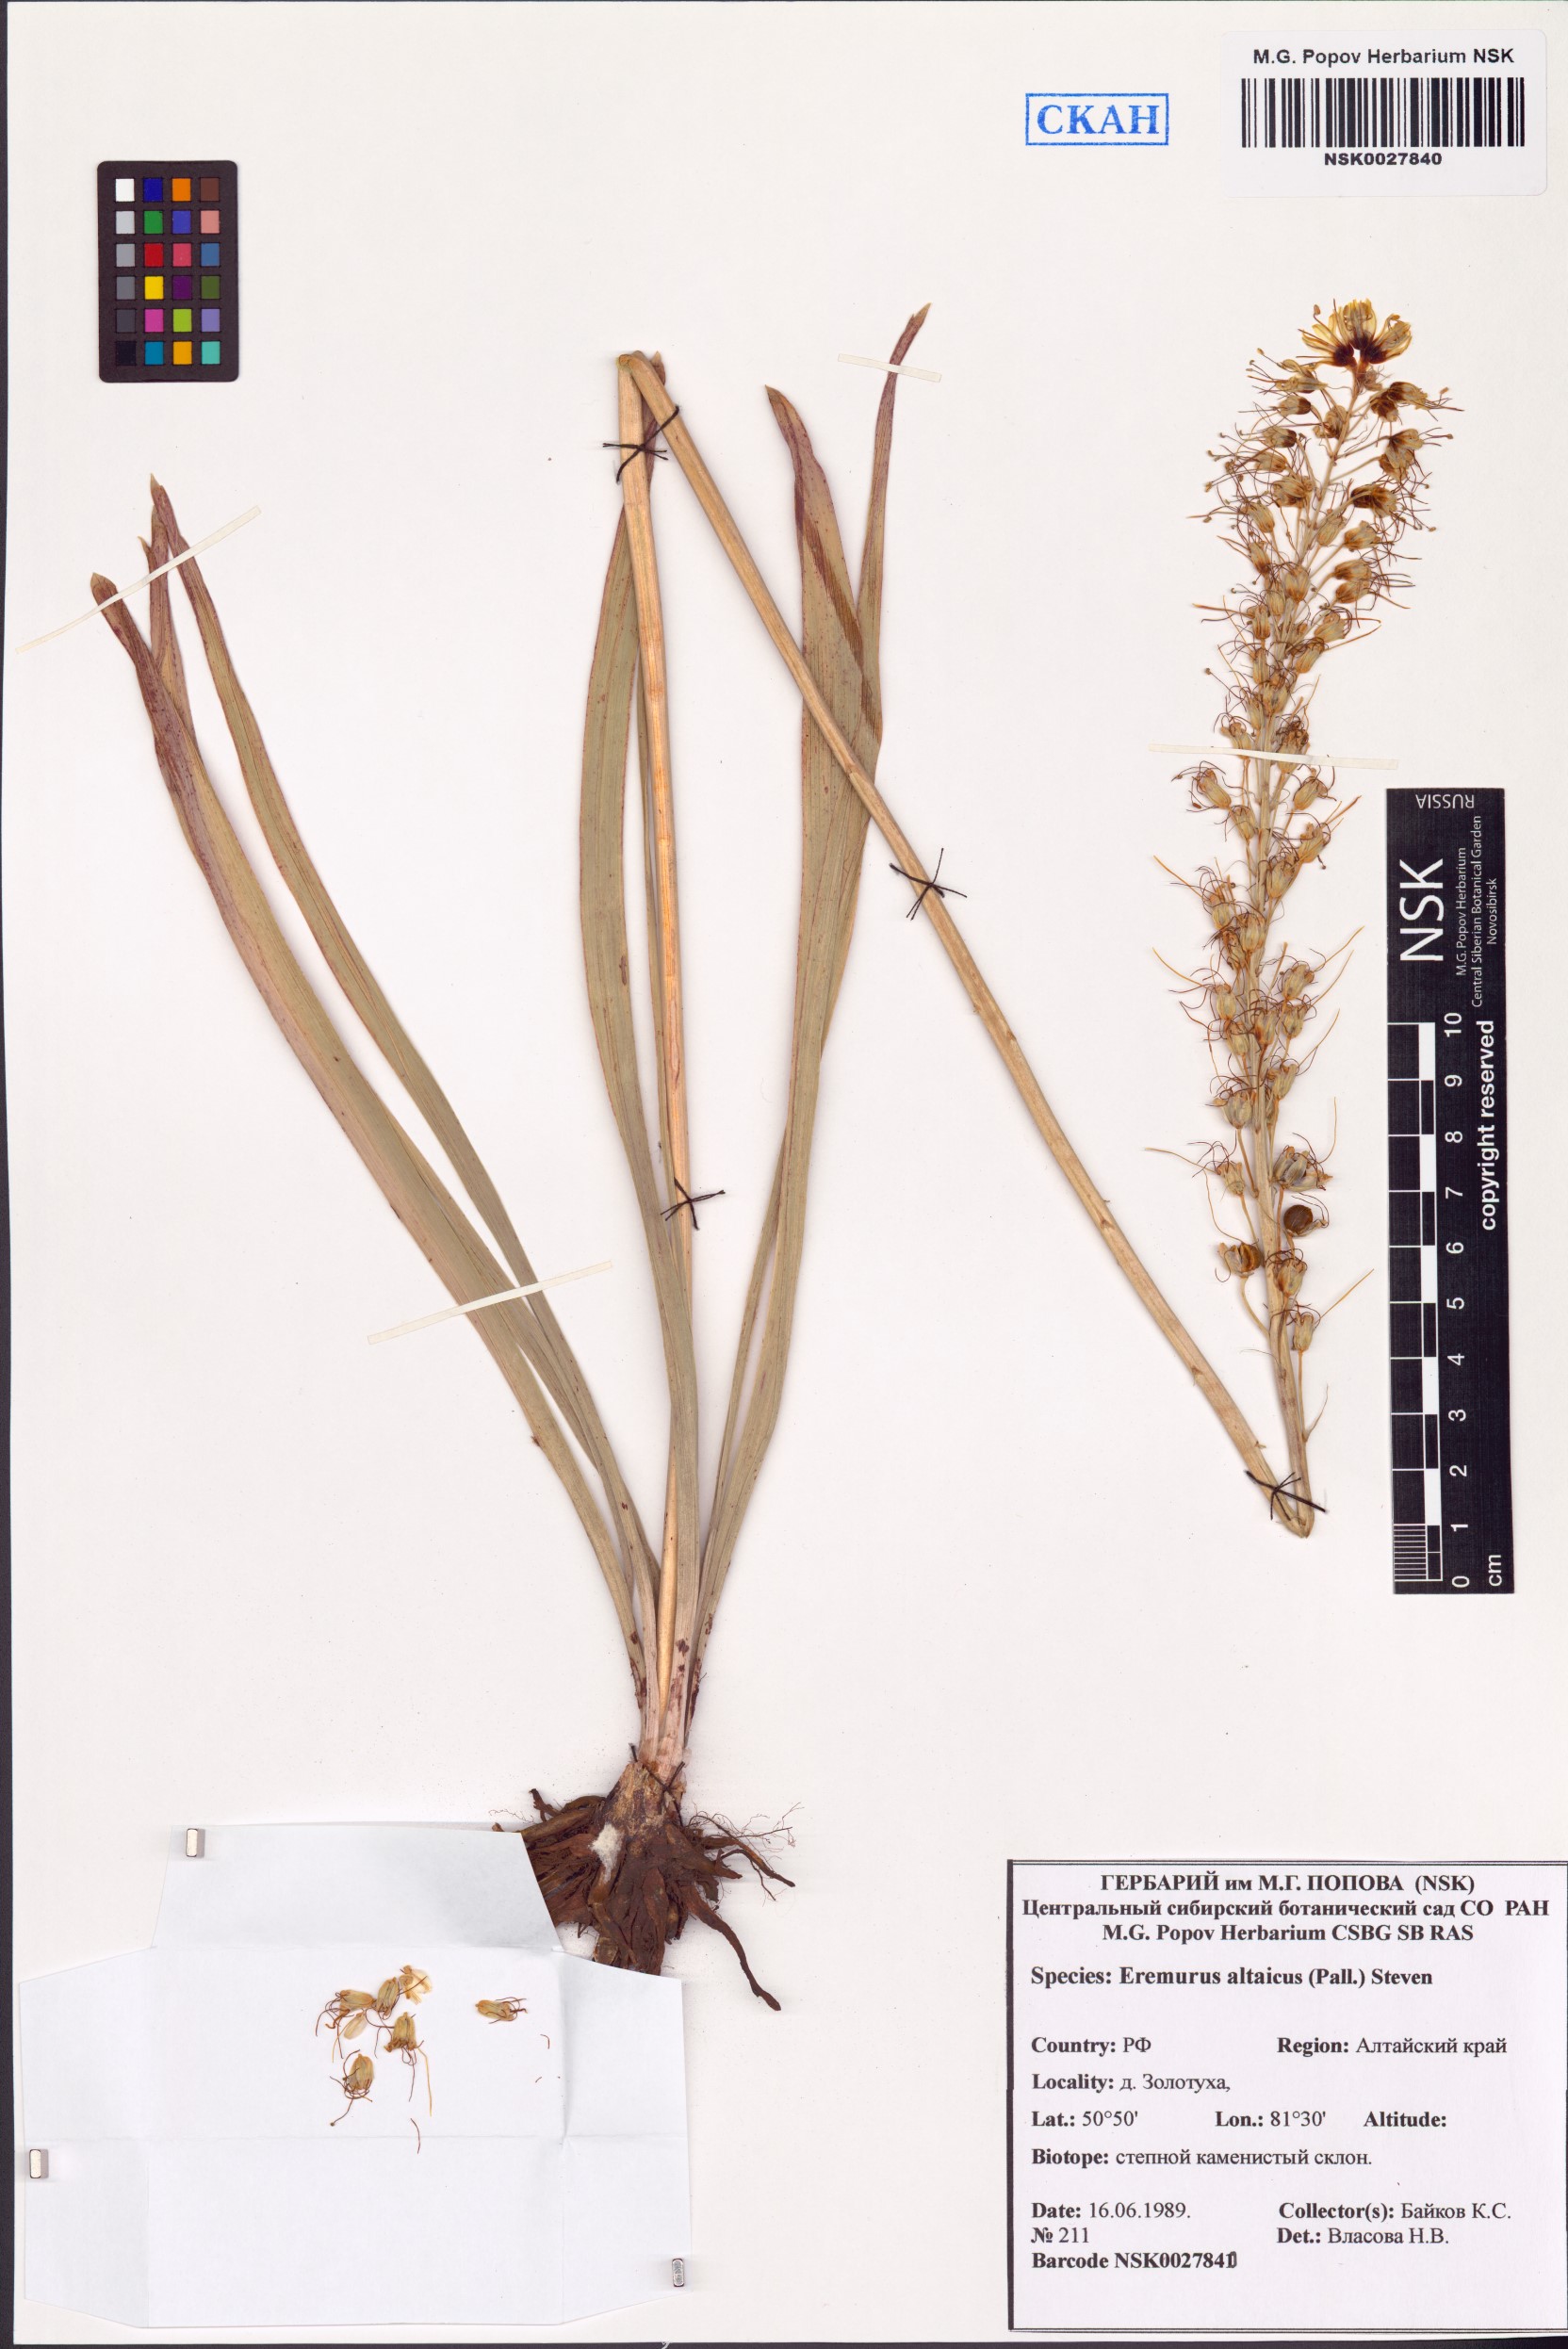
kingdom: Plantae
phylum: Tracheophyta
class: Liliopsida
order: Asparagales
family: Asphodelaceae
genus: Eremurus
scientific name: Eremurus altaicus
